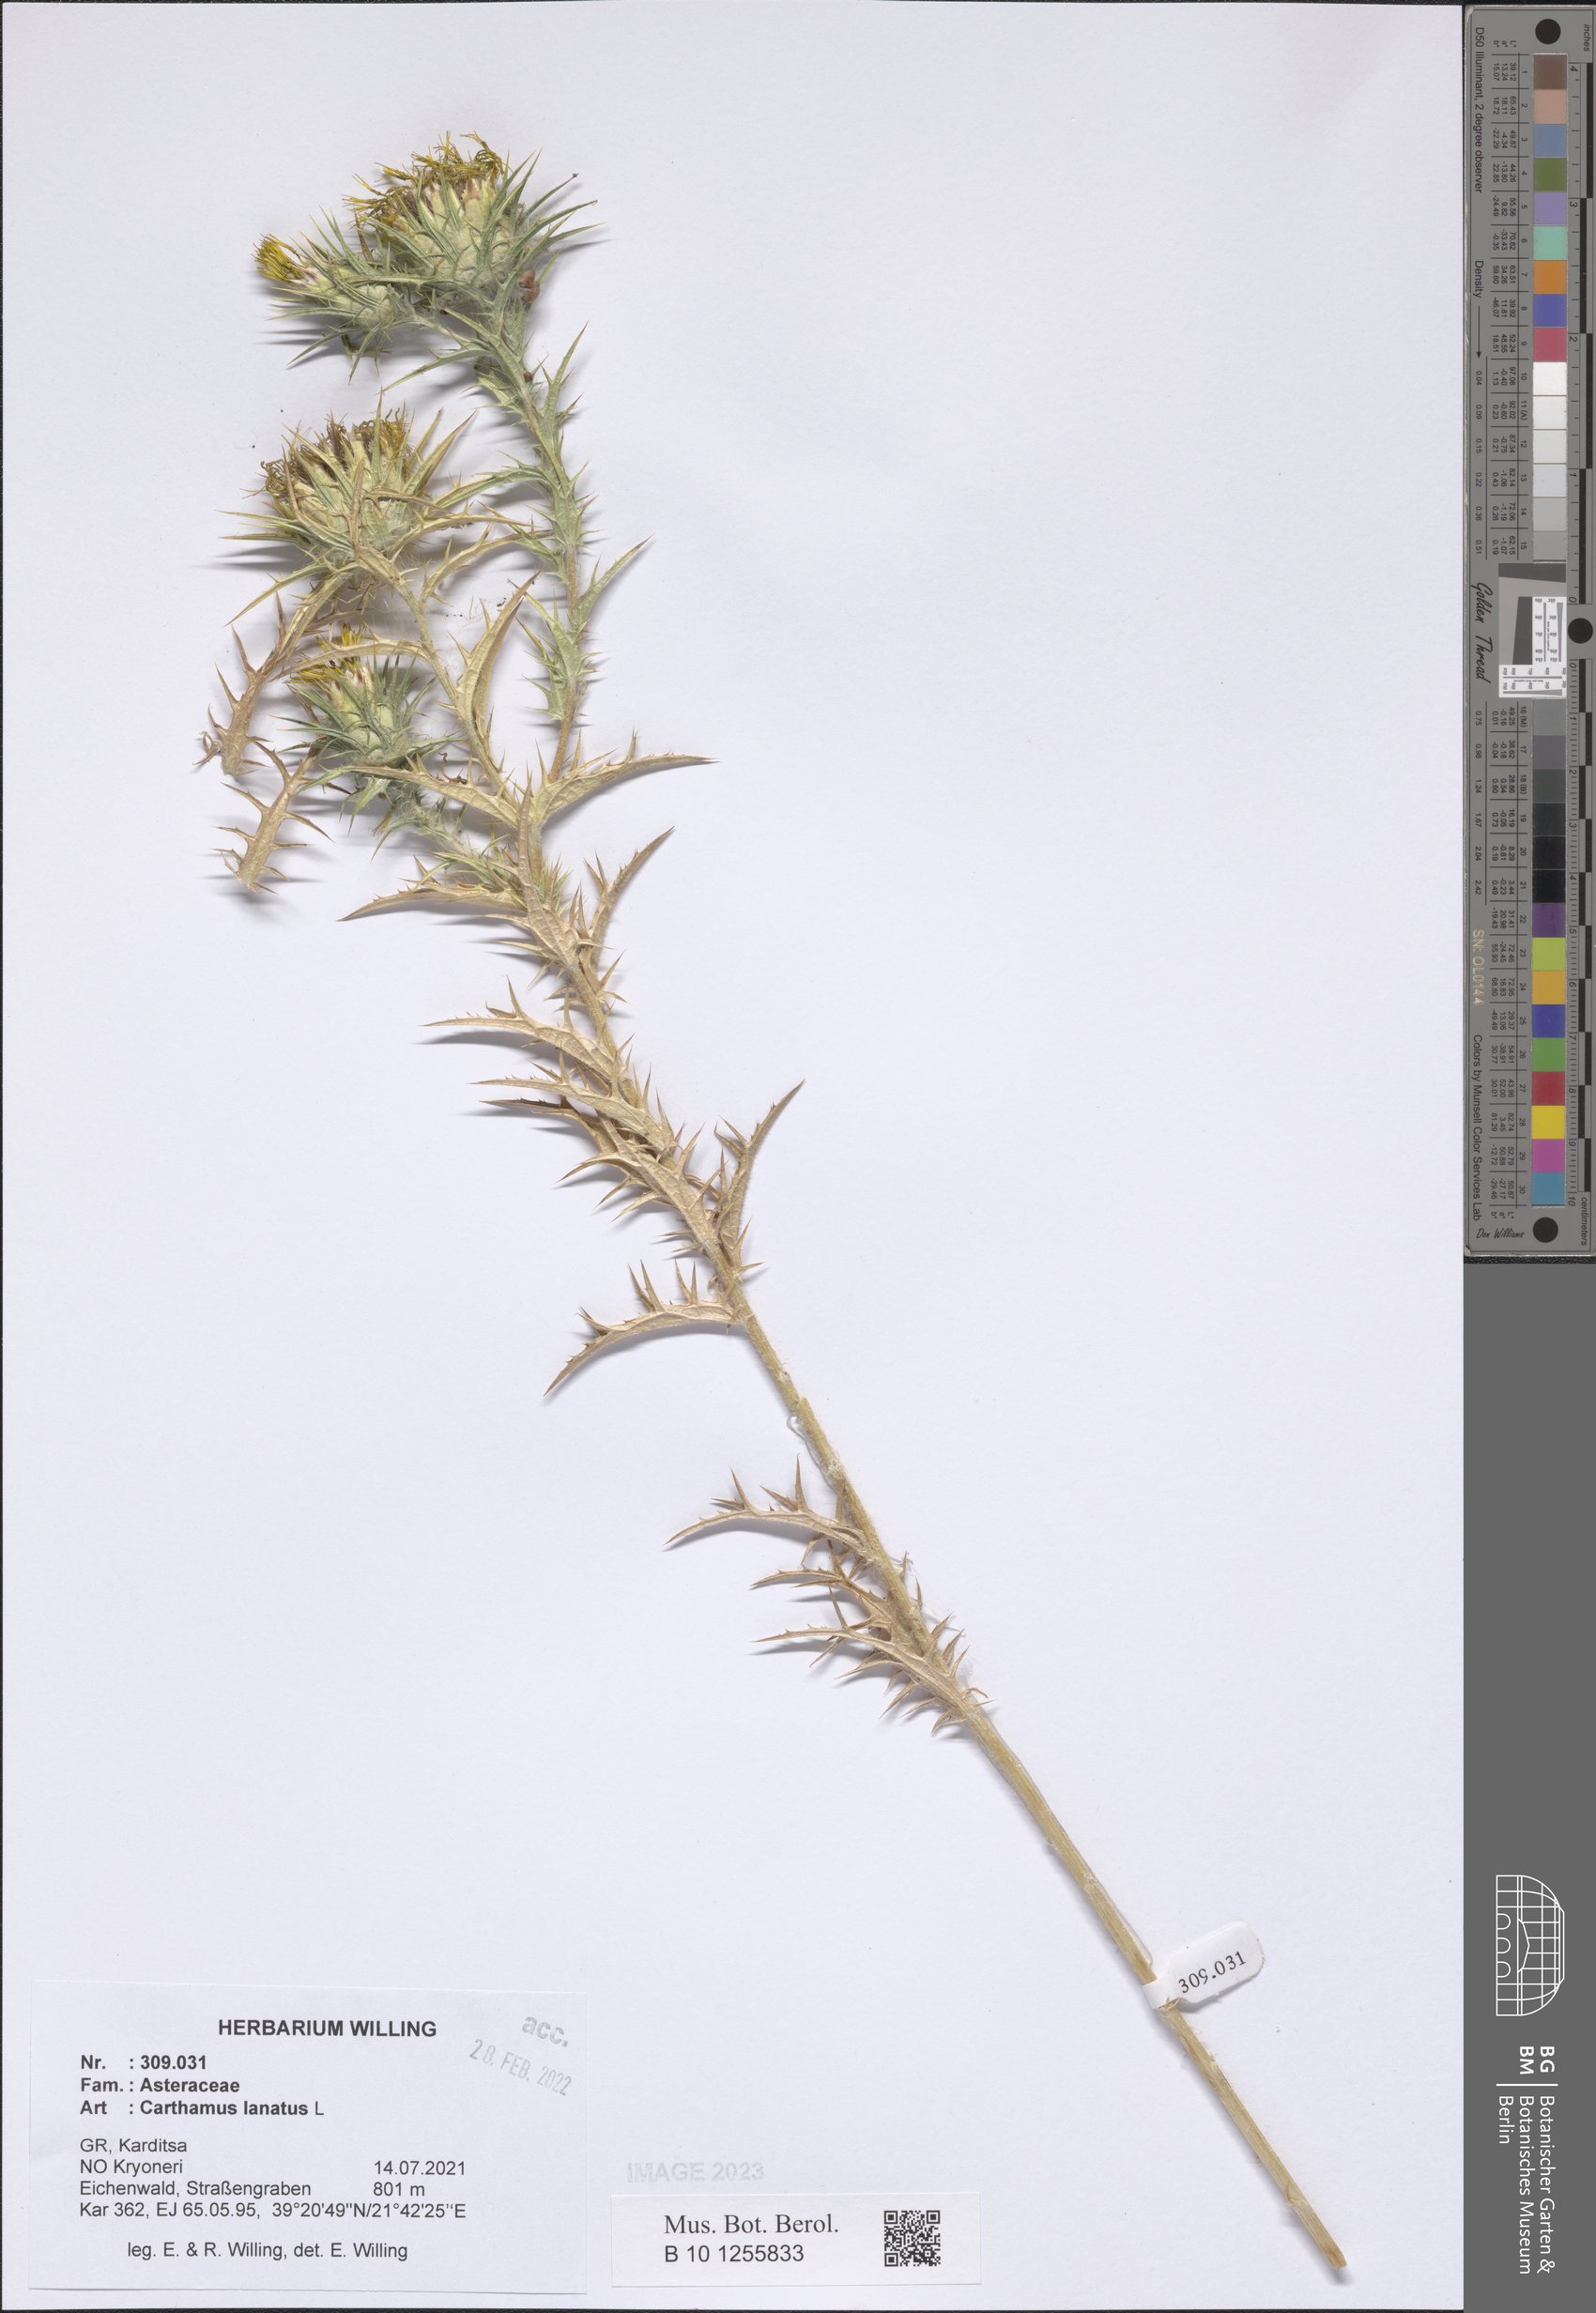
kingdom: Plantae
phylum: Tracheophyta
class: Magnoliopsida
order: Asterales
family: Asteraceae
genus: Carthamus
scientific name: Carthamus lanatus
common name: Downy safflower
